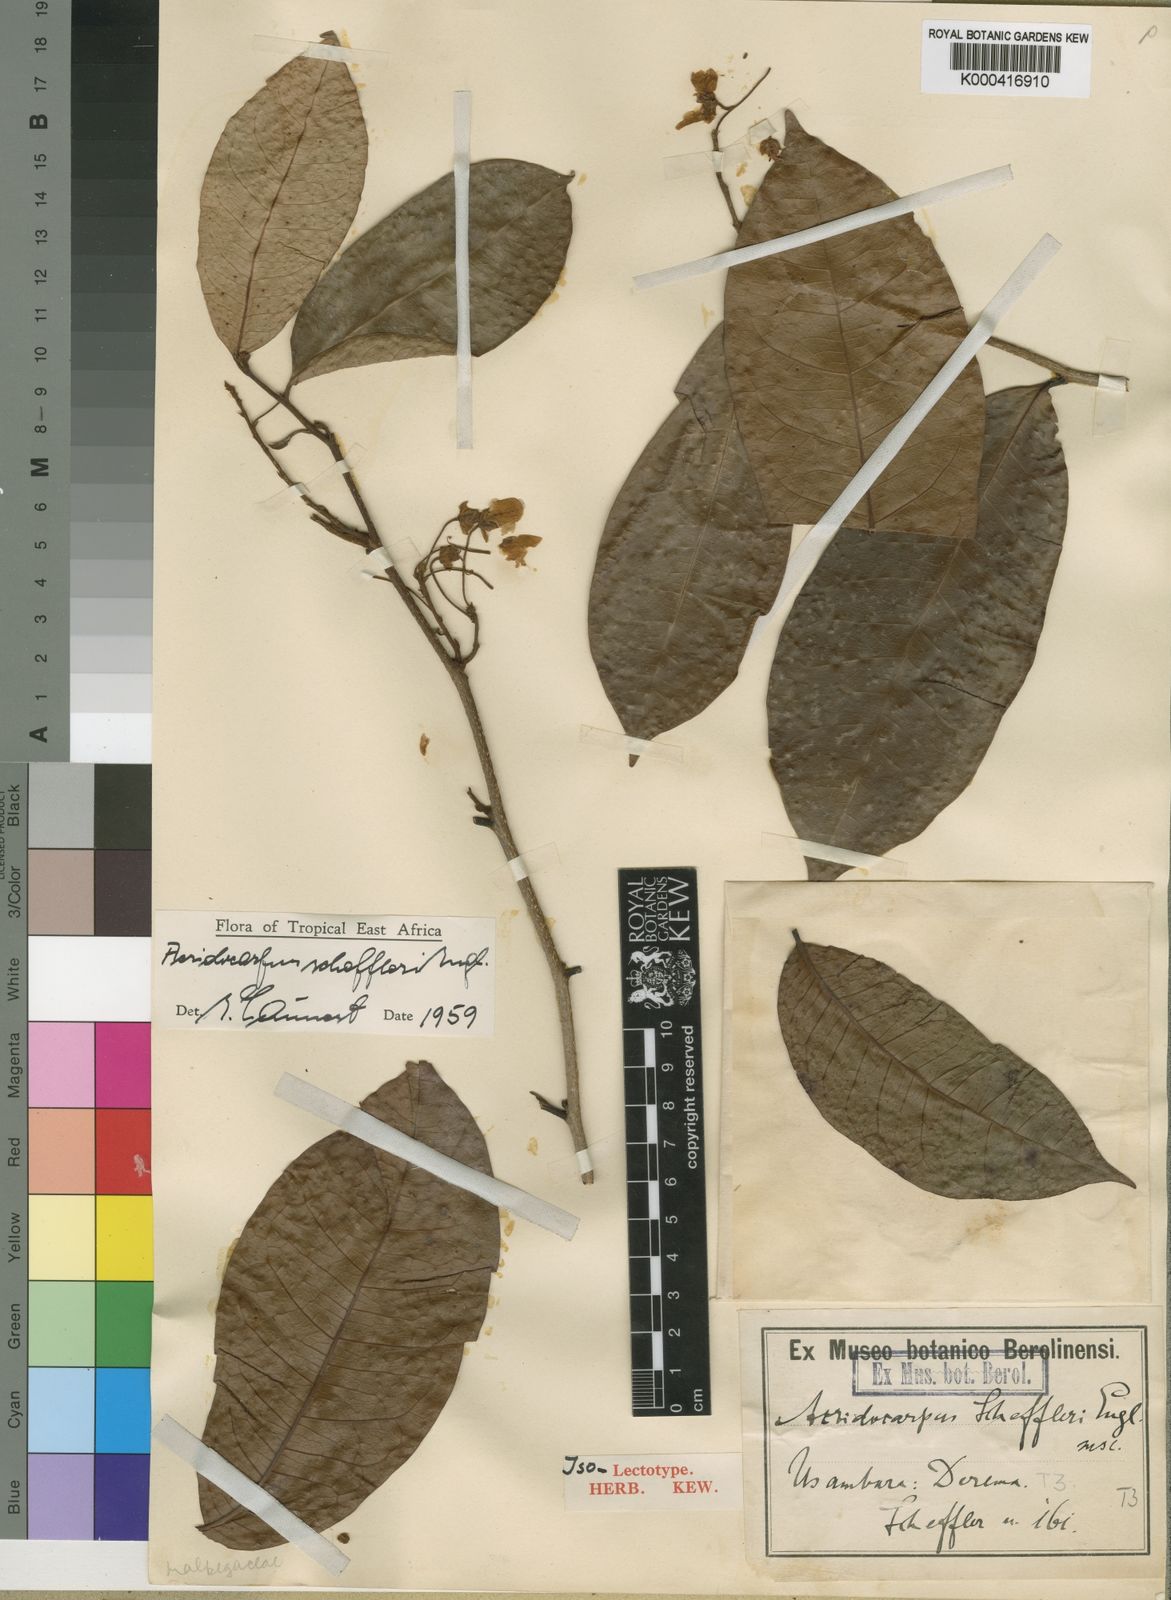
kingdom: Plantae
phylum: Tracheophyta
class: Magnoliopsida
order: Malpighiales
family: Malpighiaceae
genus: Acridocarpus
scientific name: Acridocarpus ugandensis
